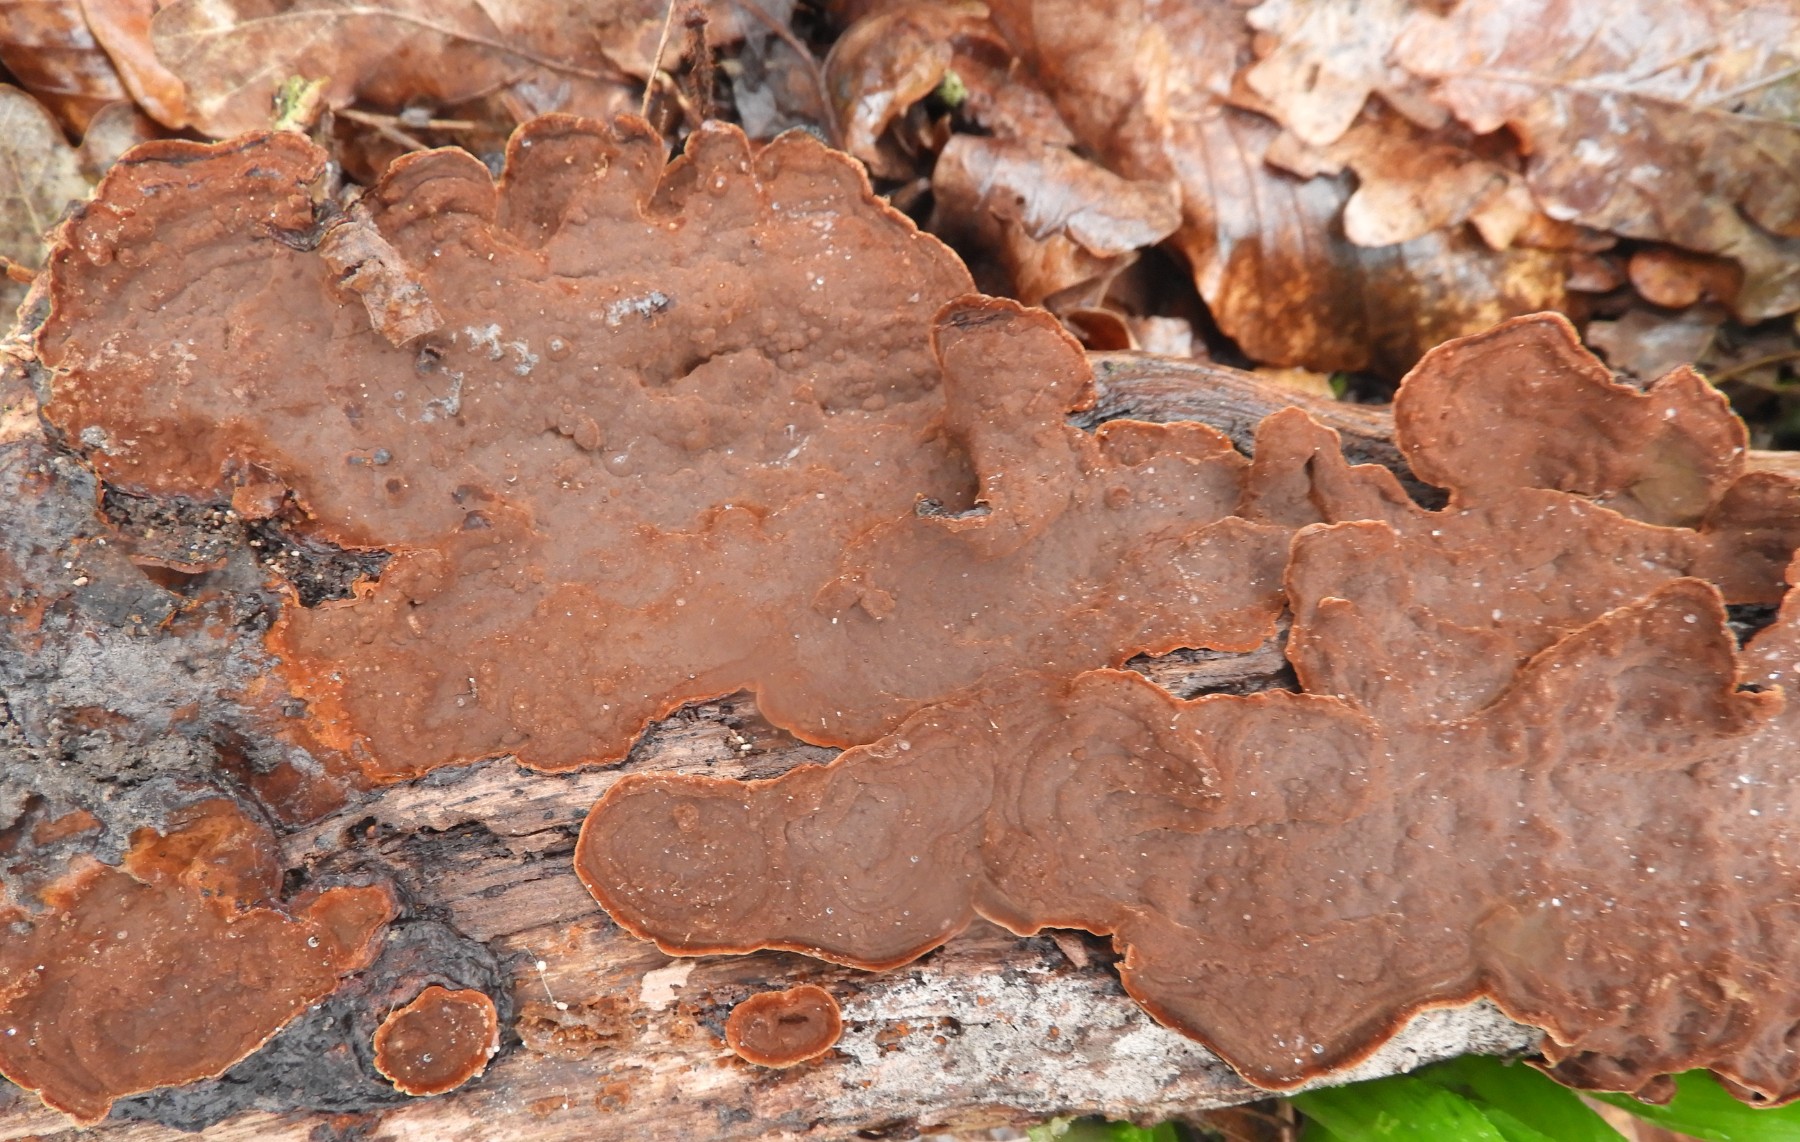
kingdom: Fungi
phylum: Basidiomycota
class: Agaricomycetes
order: Hymenochaetales
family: Hymenochaetaceae
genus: Hymenochaete
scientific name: Hymenochaete rubiginosa
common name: stiv ruslædersvamp
